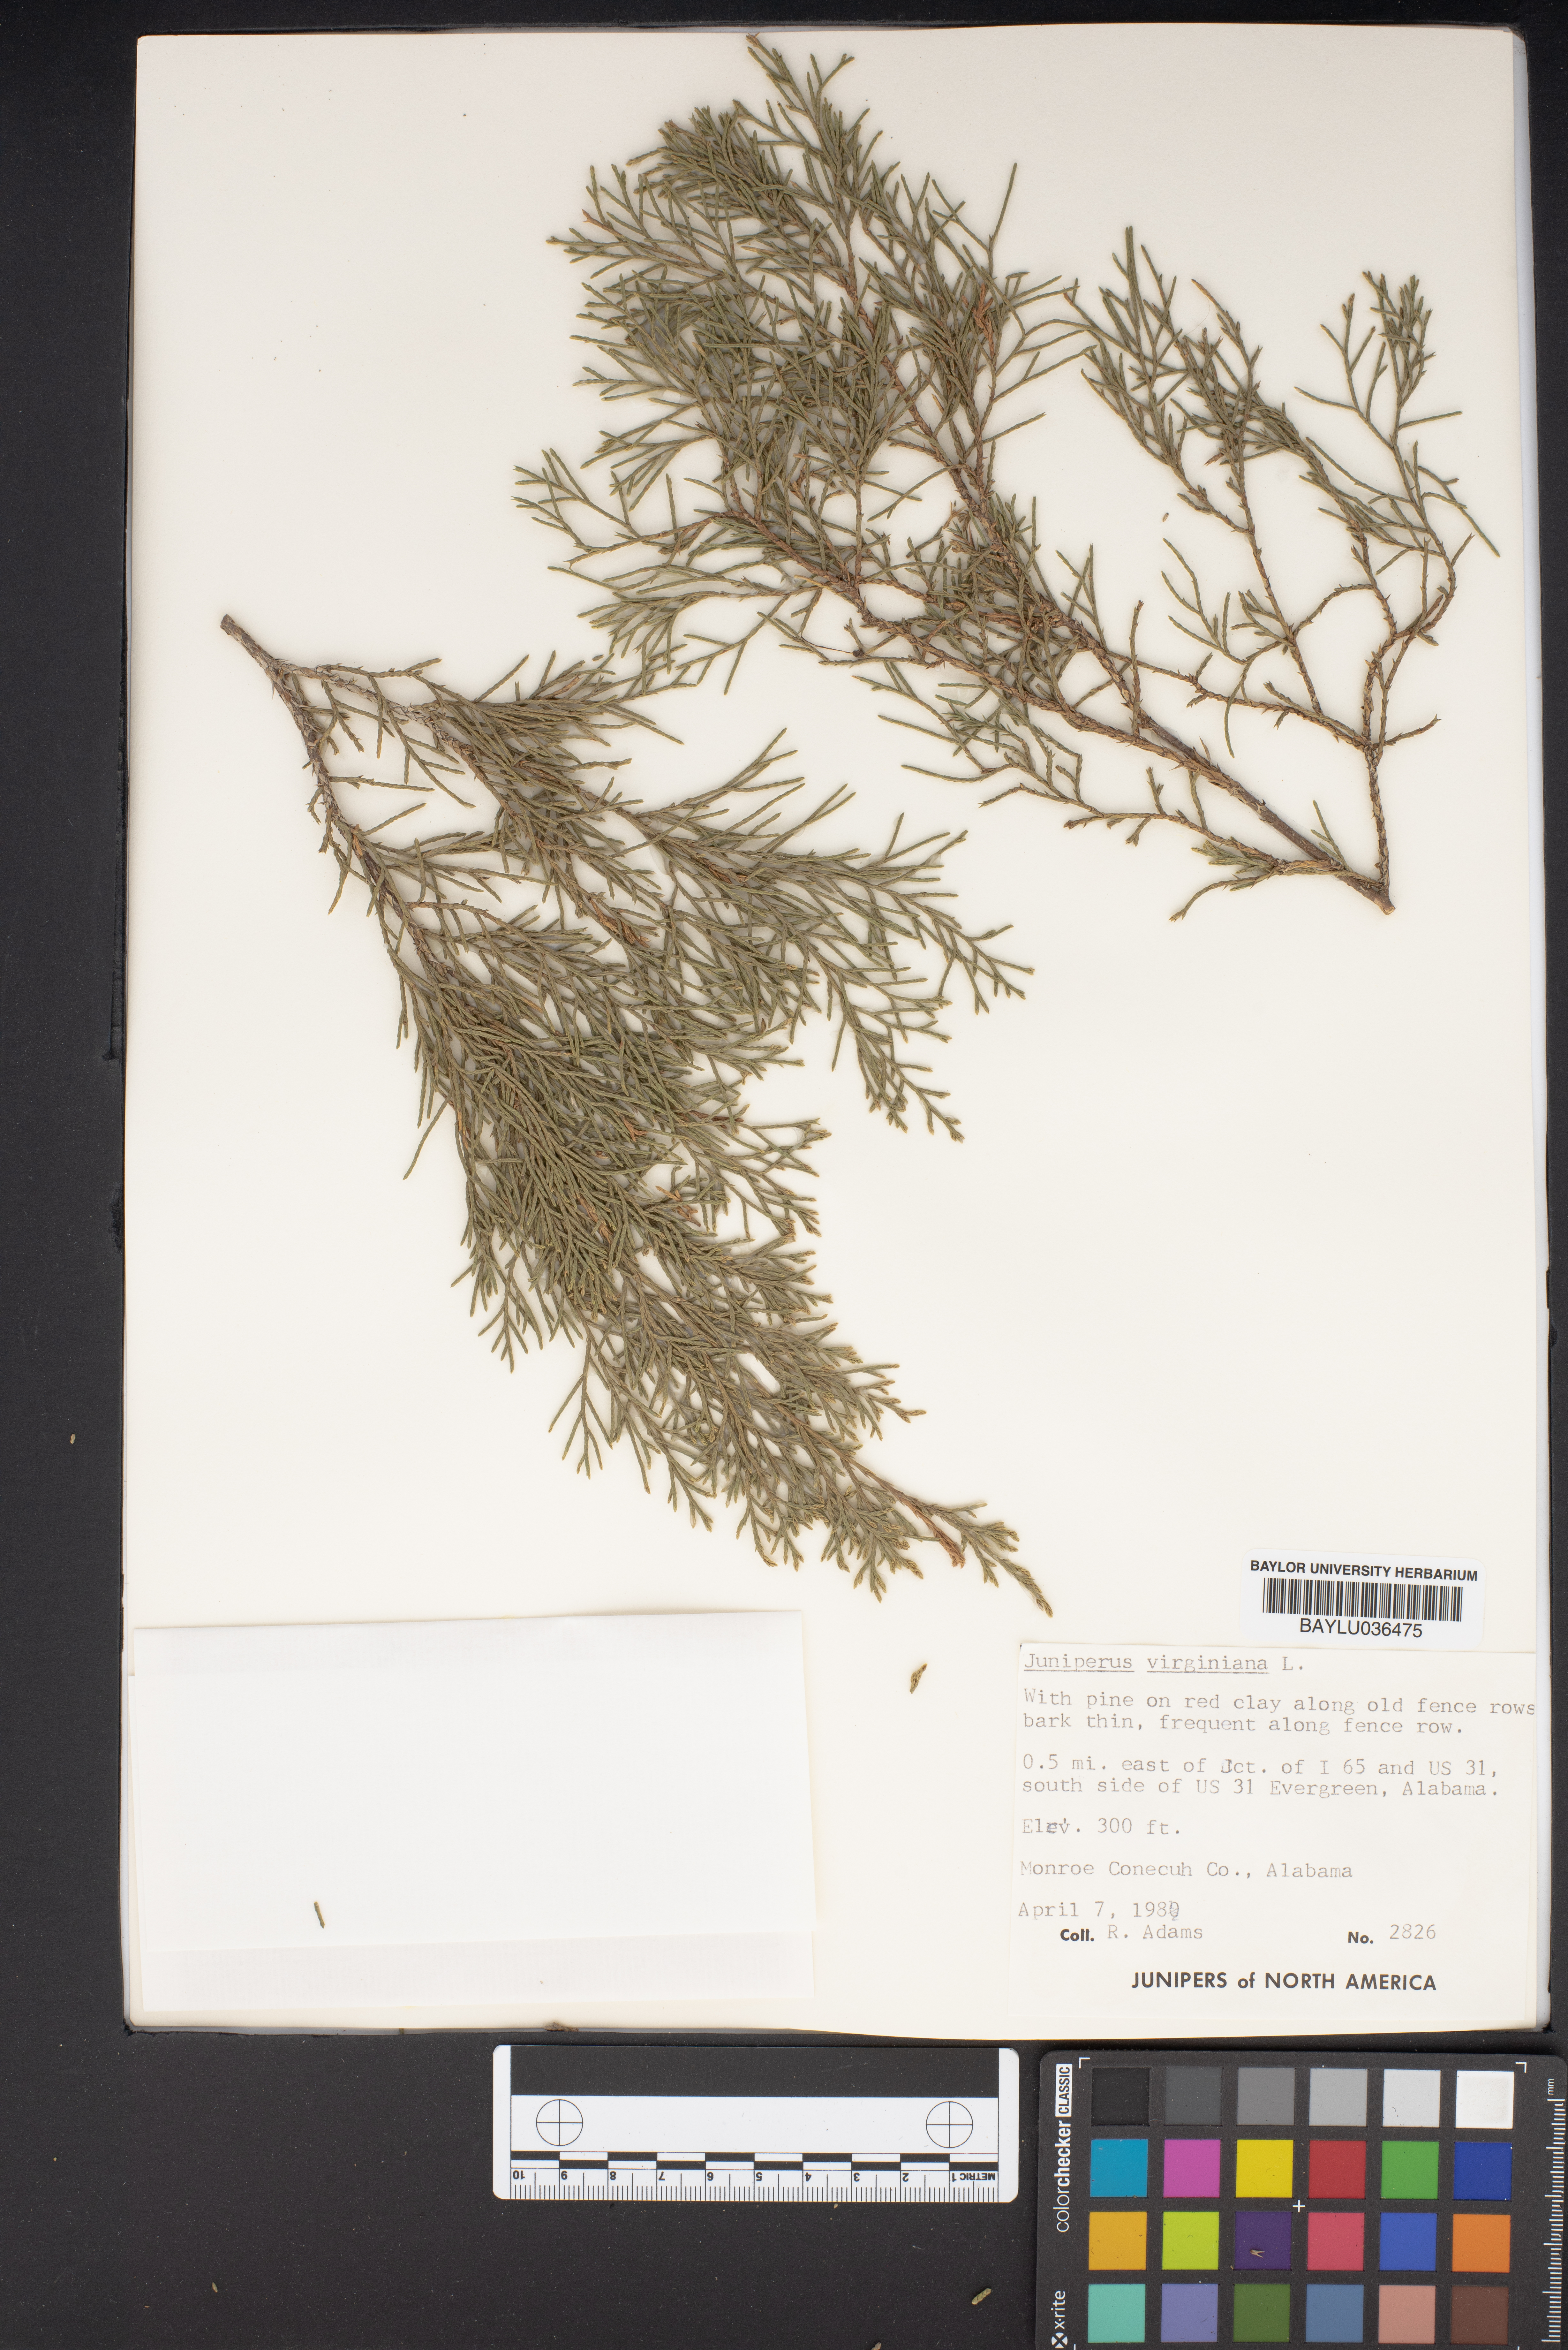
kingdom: Plantae
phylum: Tracheophyta
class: Pinopsida
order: Pinales
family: Cupressaceae
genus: Juniperus
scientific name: Juniperus virginiana
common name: Red juniper
